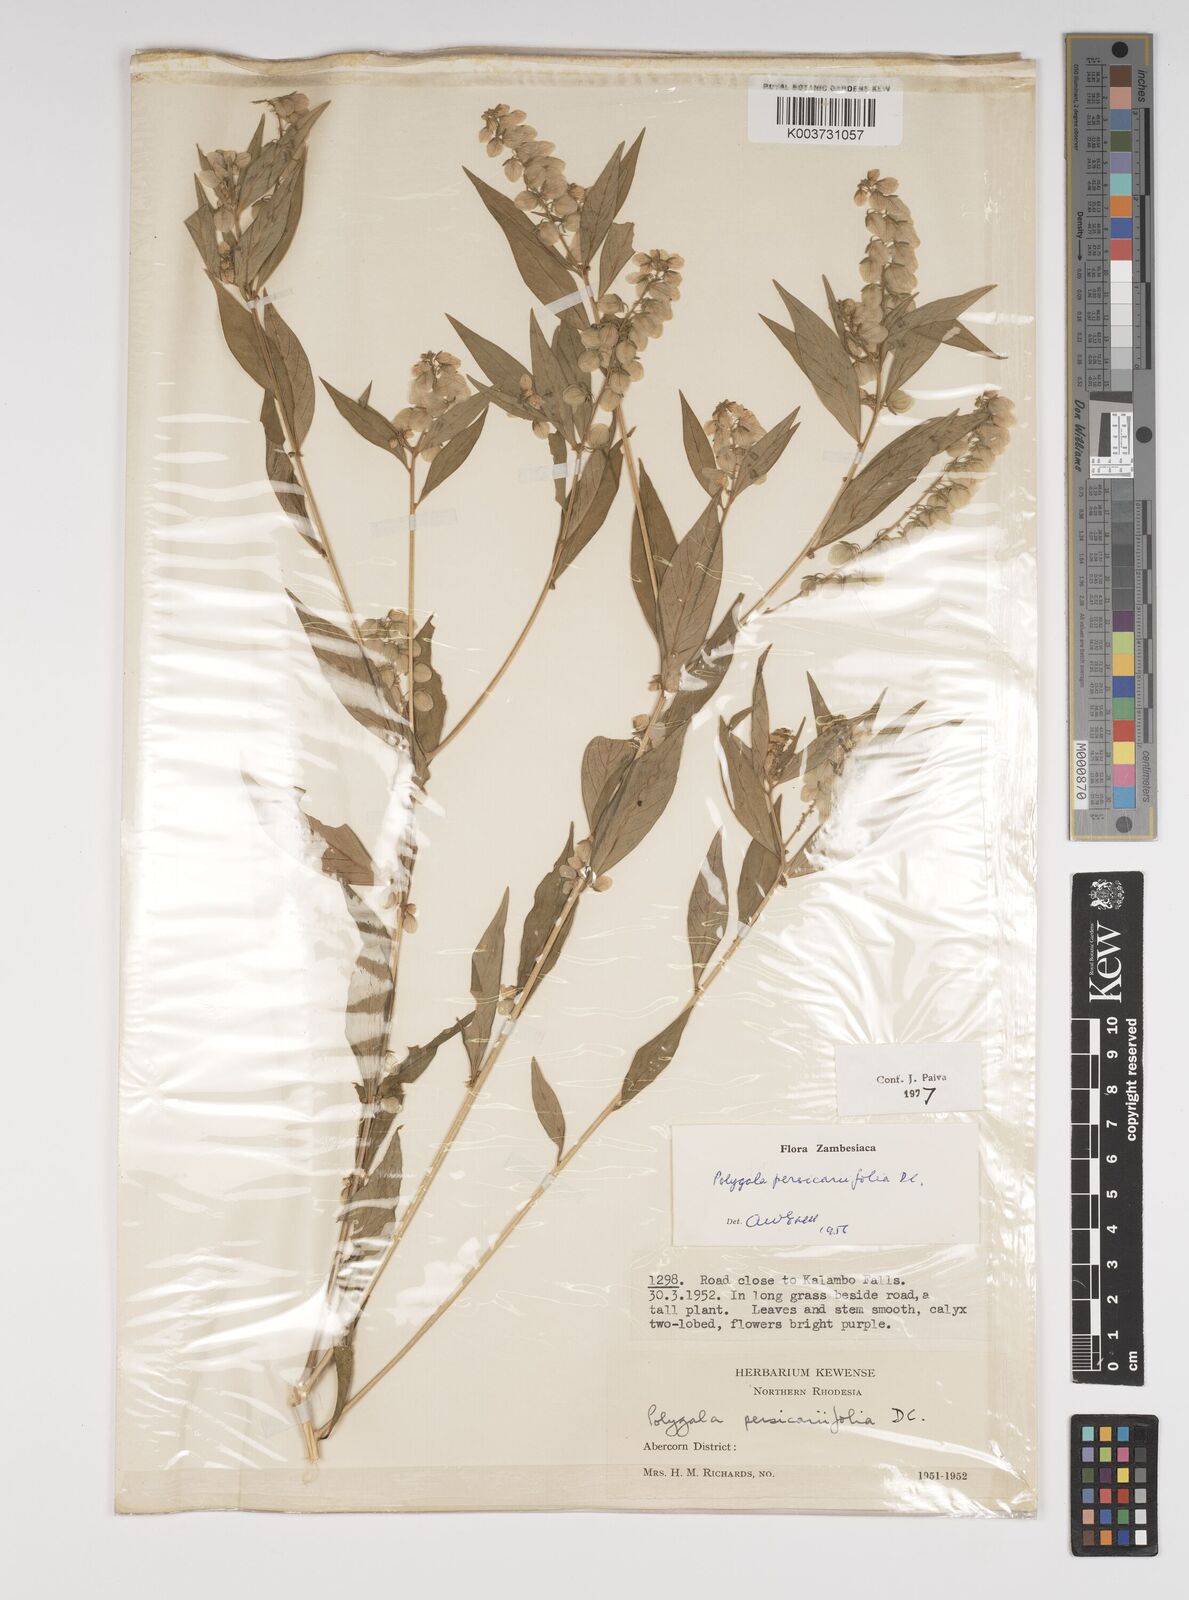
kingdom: Plantae
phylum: Tracheophyta
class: Magnoliopsida
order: Fabales
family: Polygalaceae
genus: Polygala
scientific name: Polygala persicariifolia
